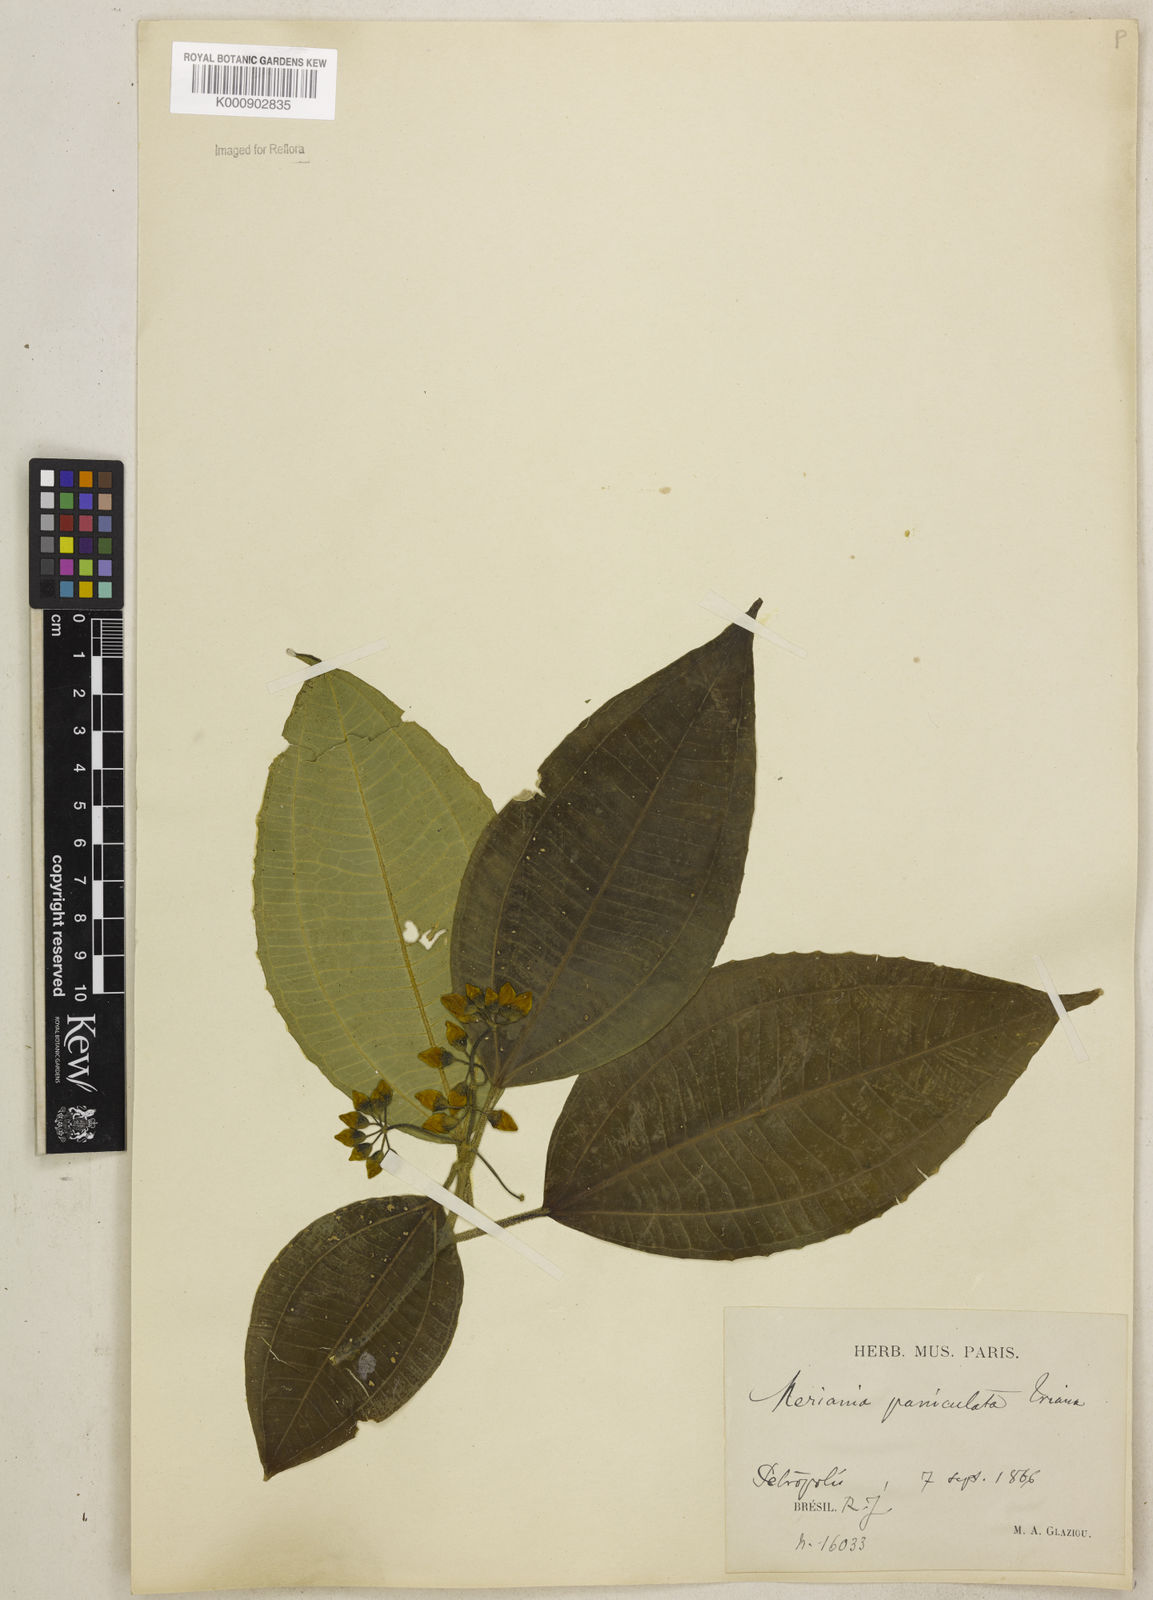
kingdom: Plantae
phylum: Tracheophyta
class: Magnoliopsida
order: Myrtales
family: Melastomataceae
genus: Meriania
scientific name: Meriania paniculata
